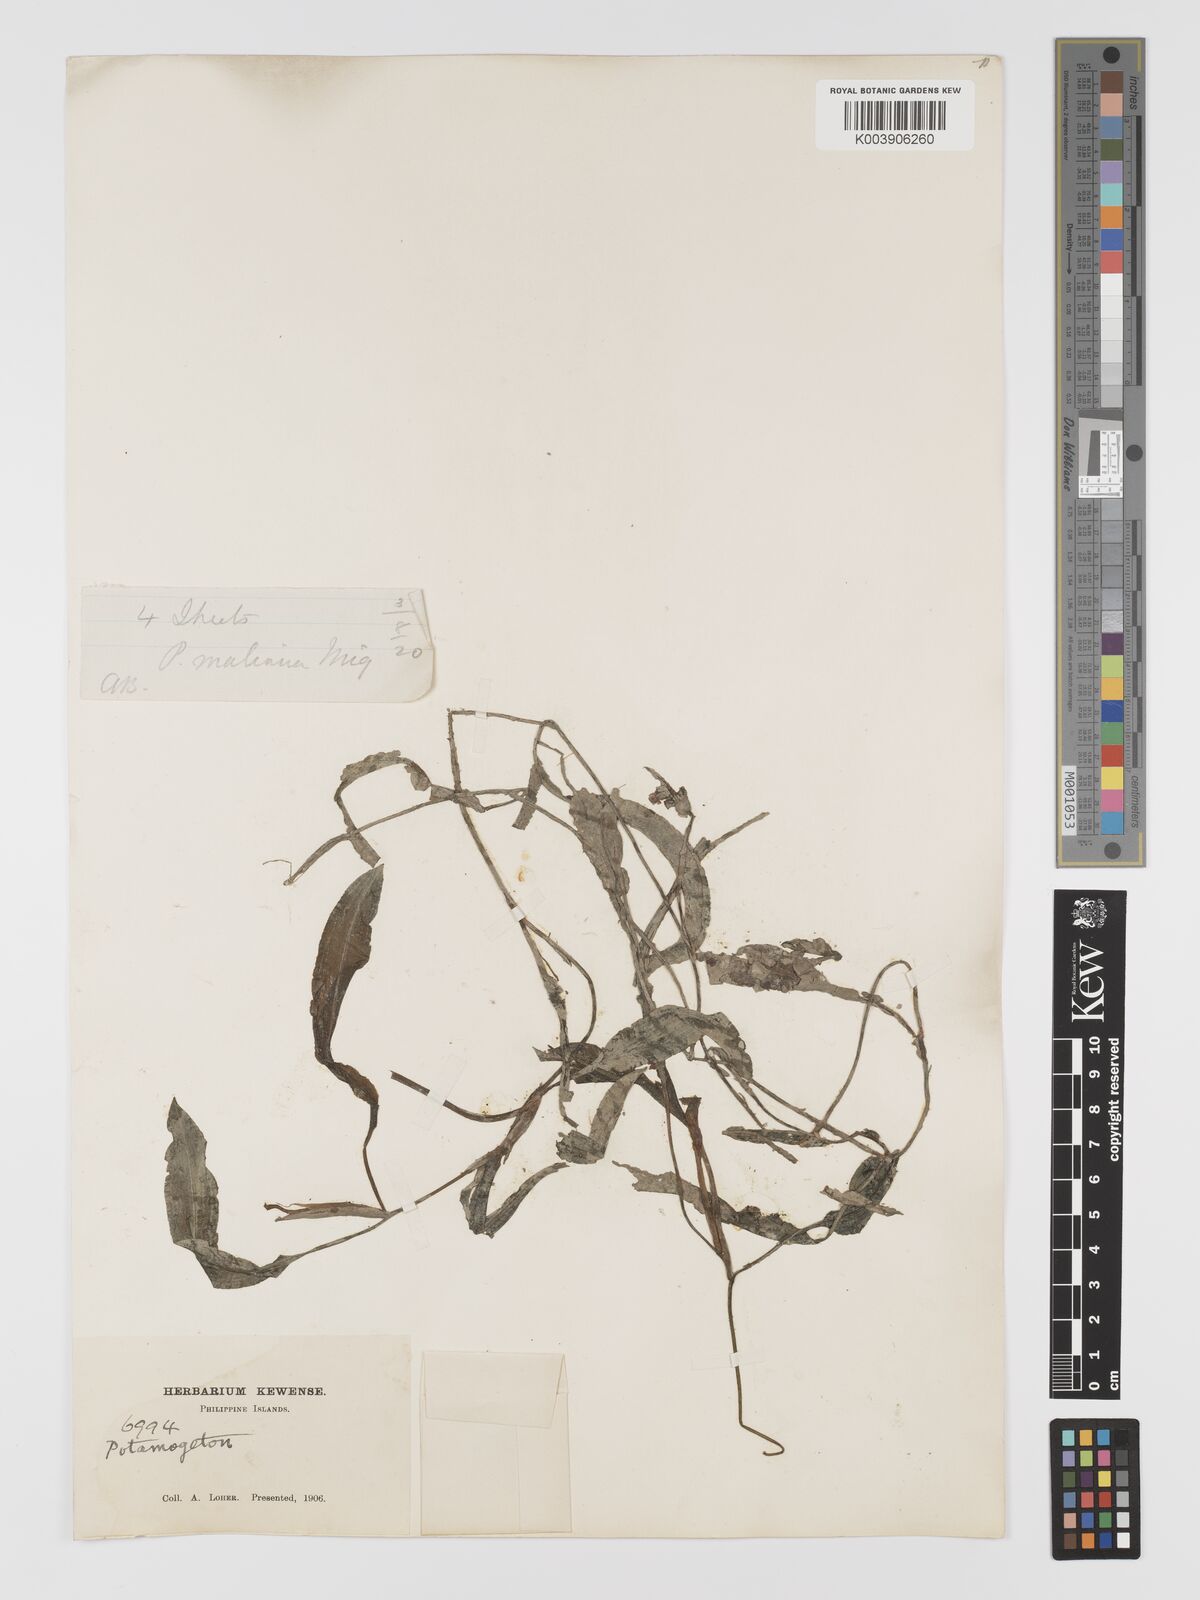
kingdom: Plantae
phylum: Tracheophyta
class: Liliopsida
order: Alismatales
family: Potamogetonaceae
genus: Potamogeton
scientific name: Potamogeton wrightii
